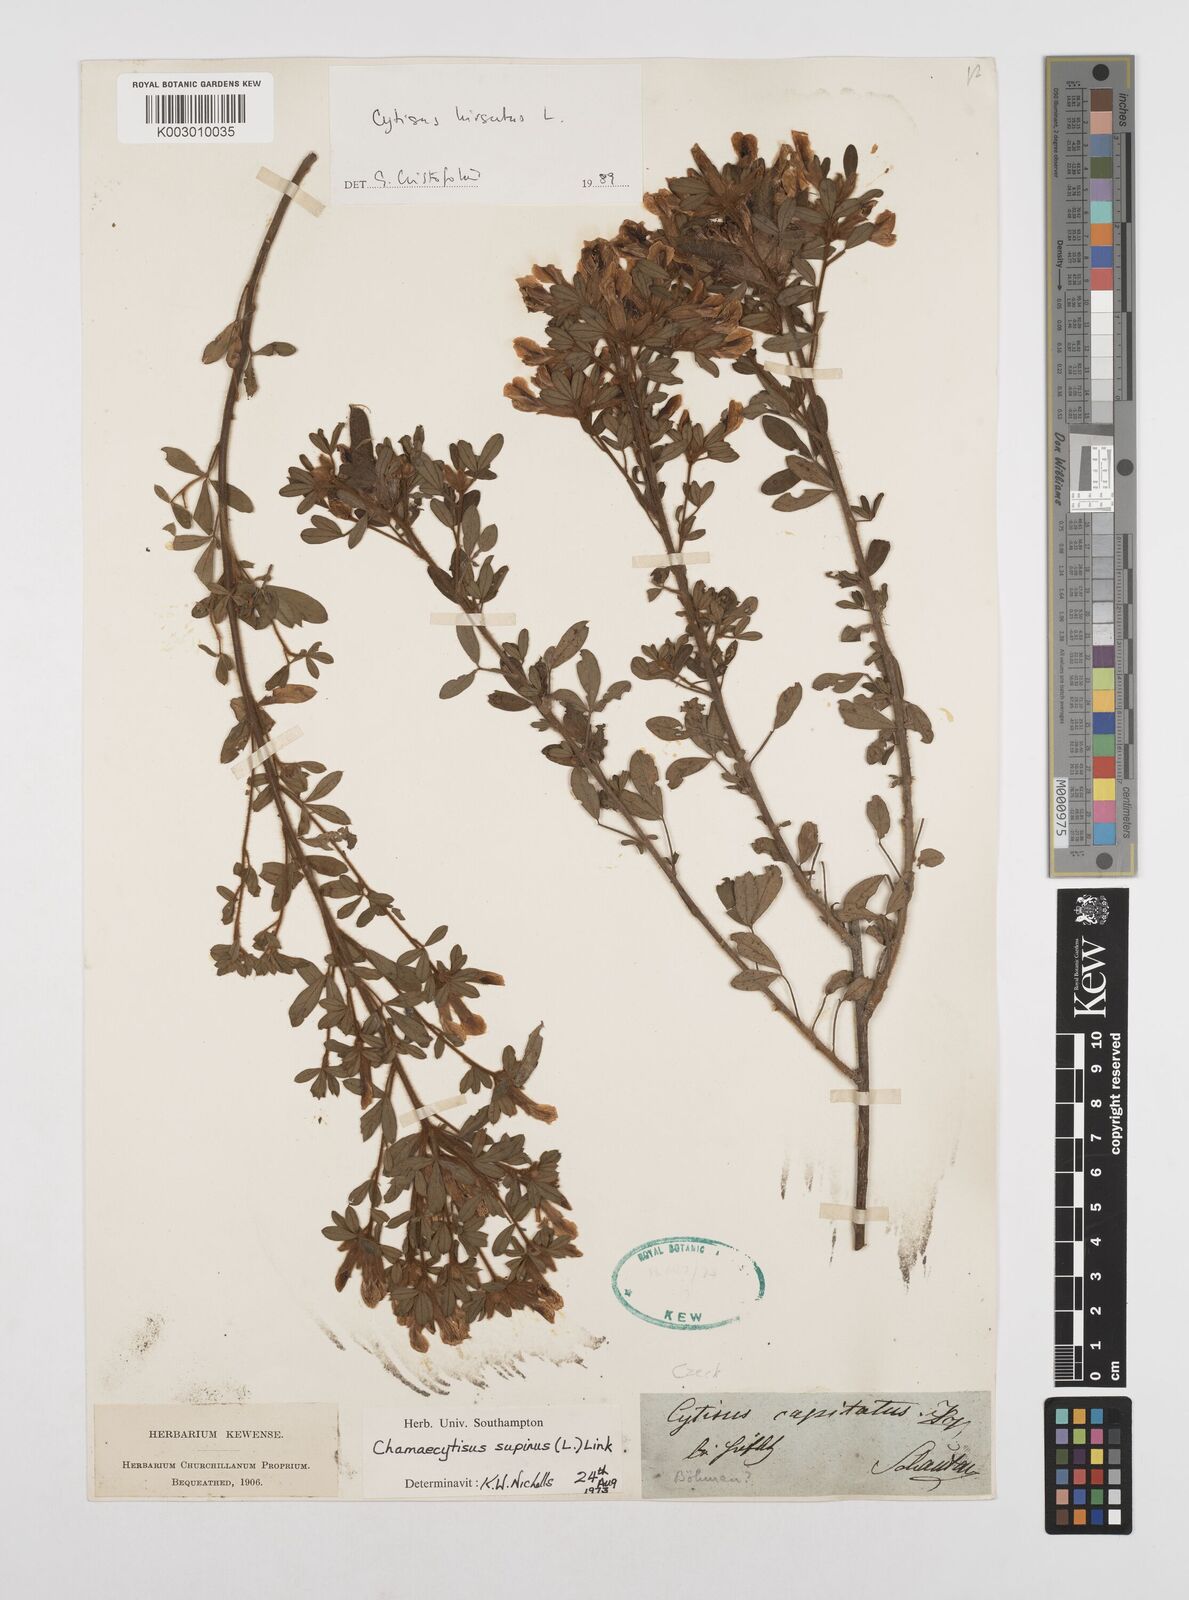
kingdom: Plantae
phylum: Tracheophyta
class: Magnoliopsida
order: Fabales
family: Fabaceae
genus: Chamaecytisus
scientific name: Chamaecytisus hirsutus
